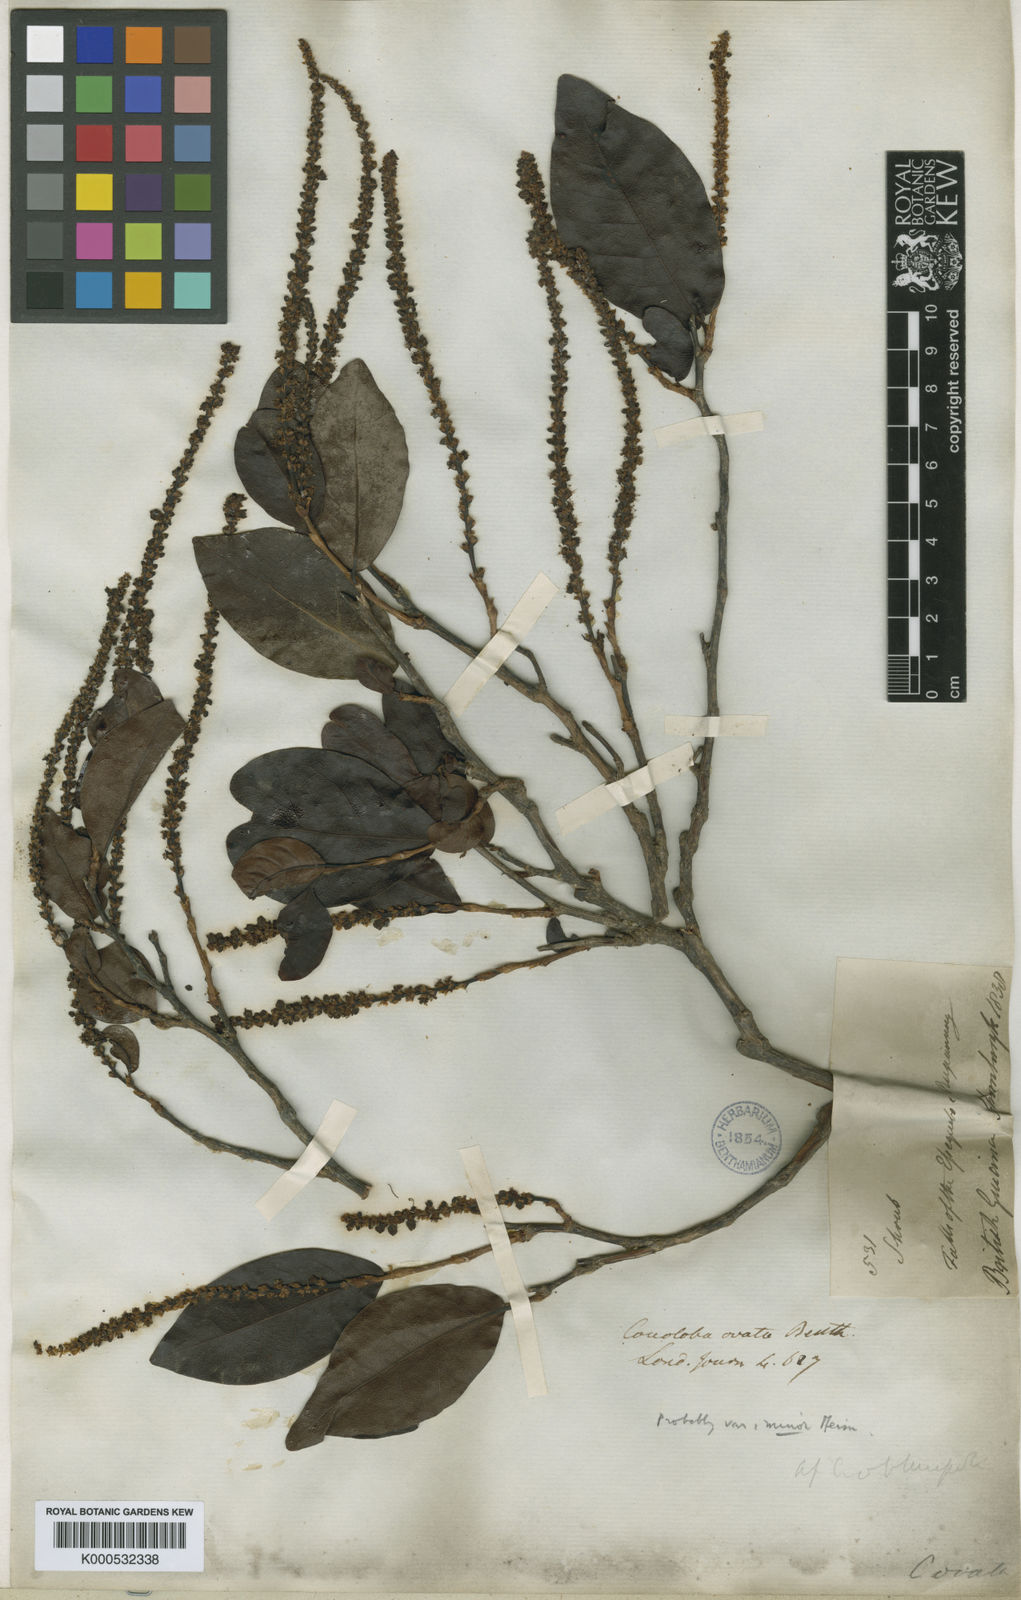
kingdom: Plantae
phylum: Tracheophyta
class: Magnoliopsida
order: Caryophyllales
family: Polygonaceae
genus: Coccoloba
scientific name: Coccoloba ovata
